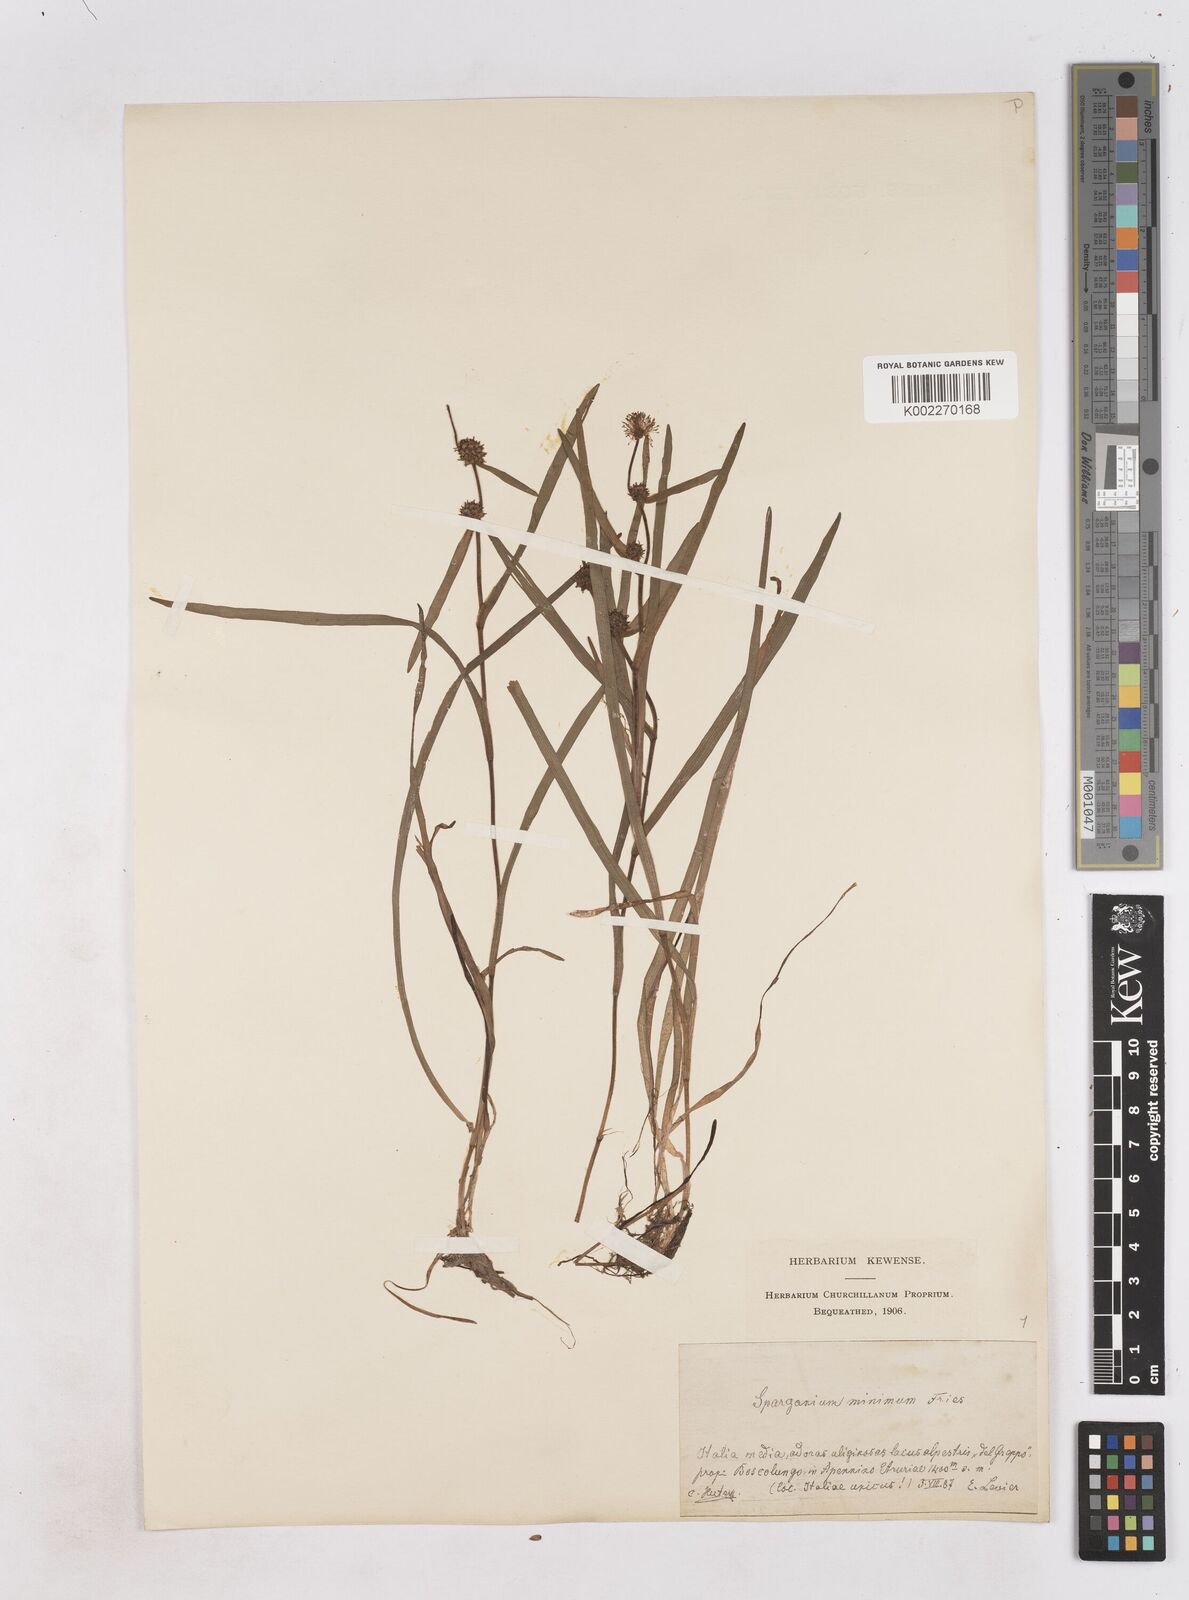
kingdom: Plantae
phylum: Tracheophyta
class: Liliopsida
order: Poales
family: Typhaceae
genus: Sparganium
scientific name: Sparganium natans
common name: Least bur-reed
